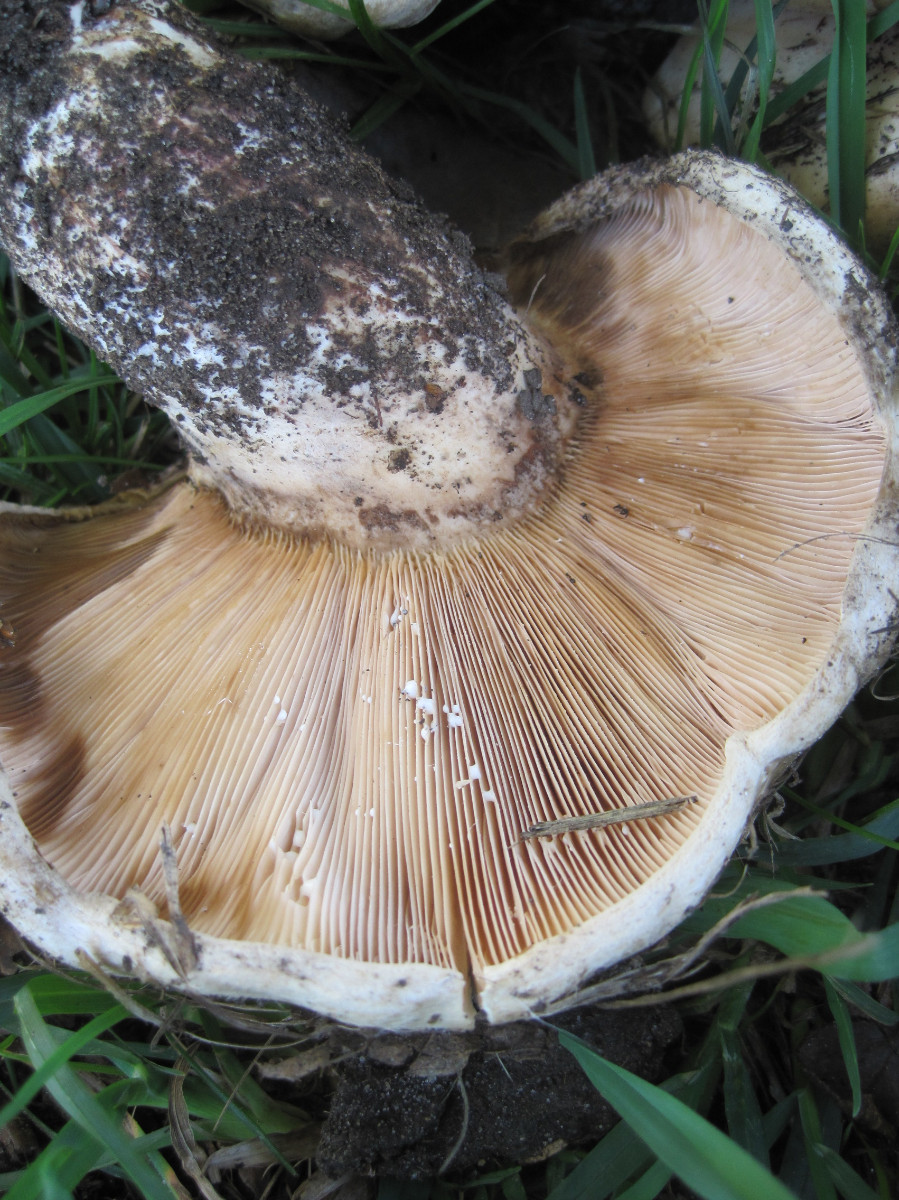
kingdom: Fungi
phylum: Basidiomycota
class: Agaricomycetes
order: Russulales
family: Russulaceae
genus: Lactarius
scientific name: Lactarius controversus
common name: rosabladet mælkehat
